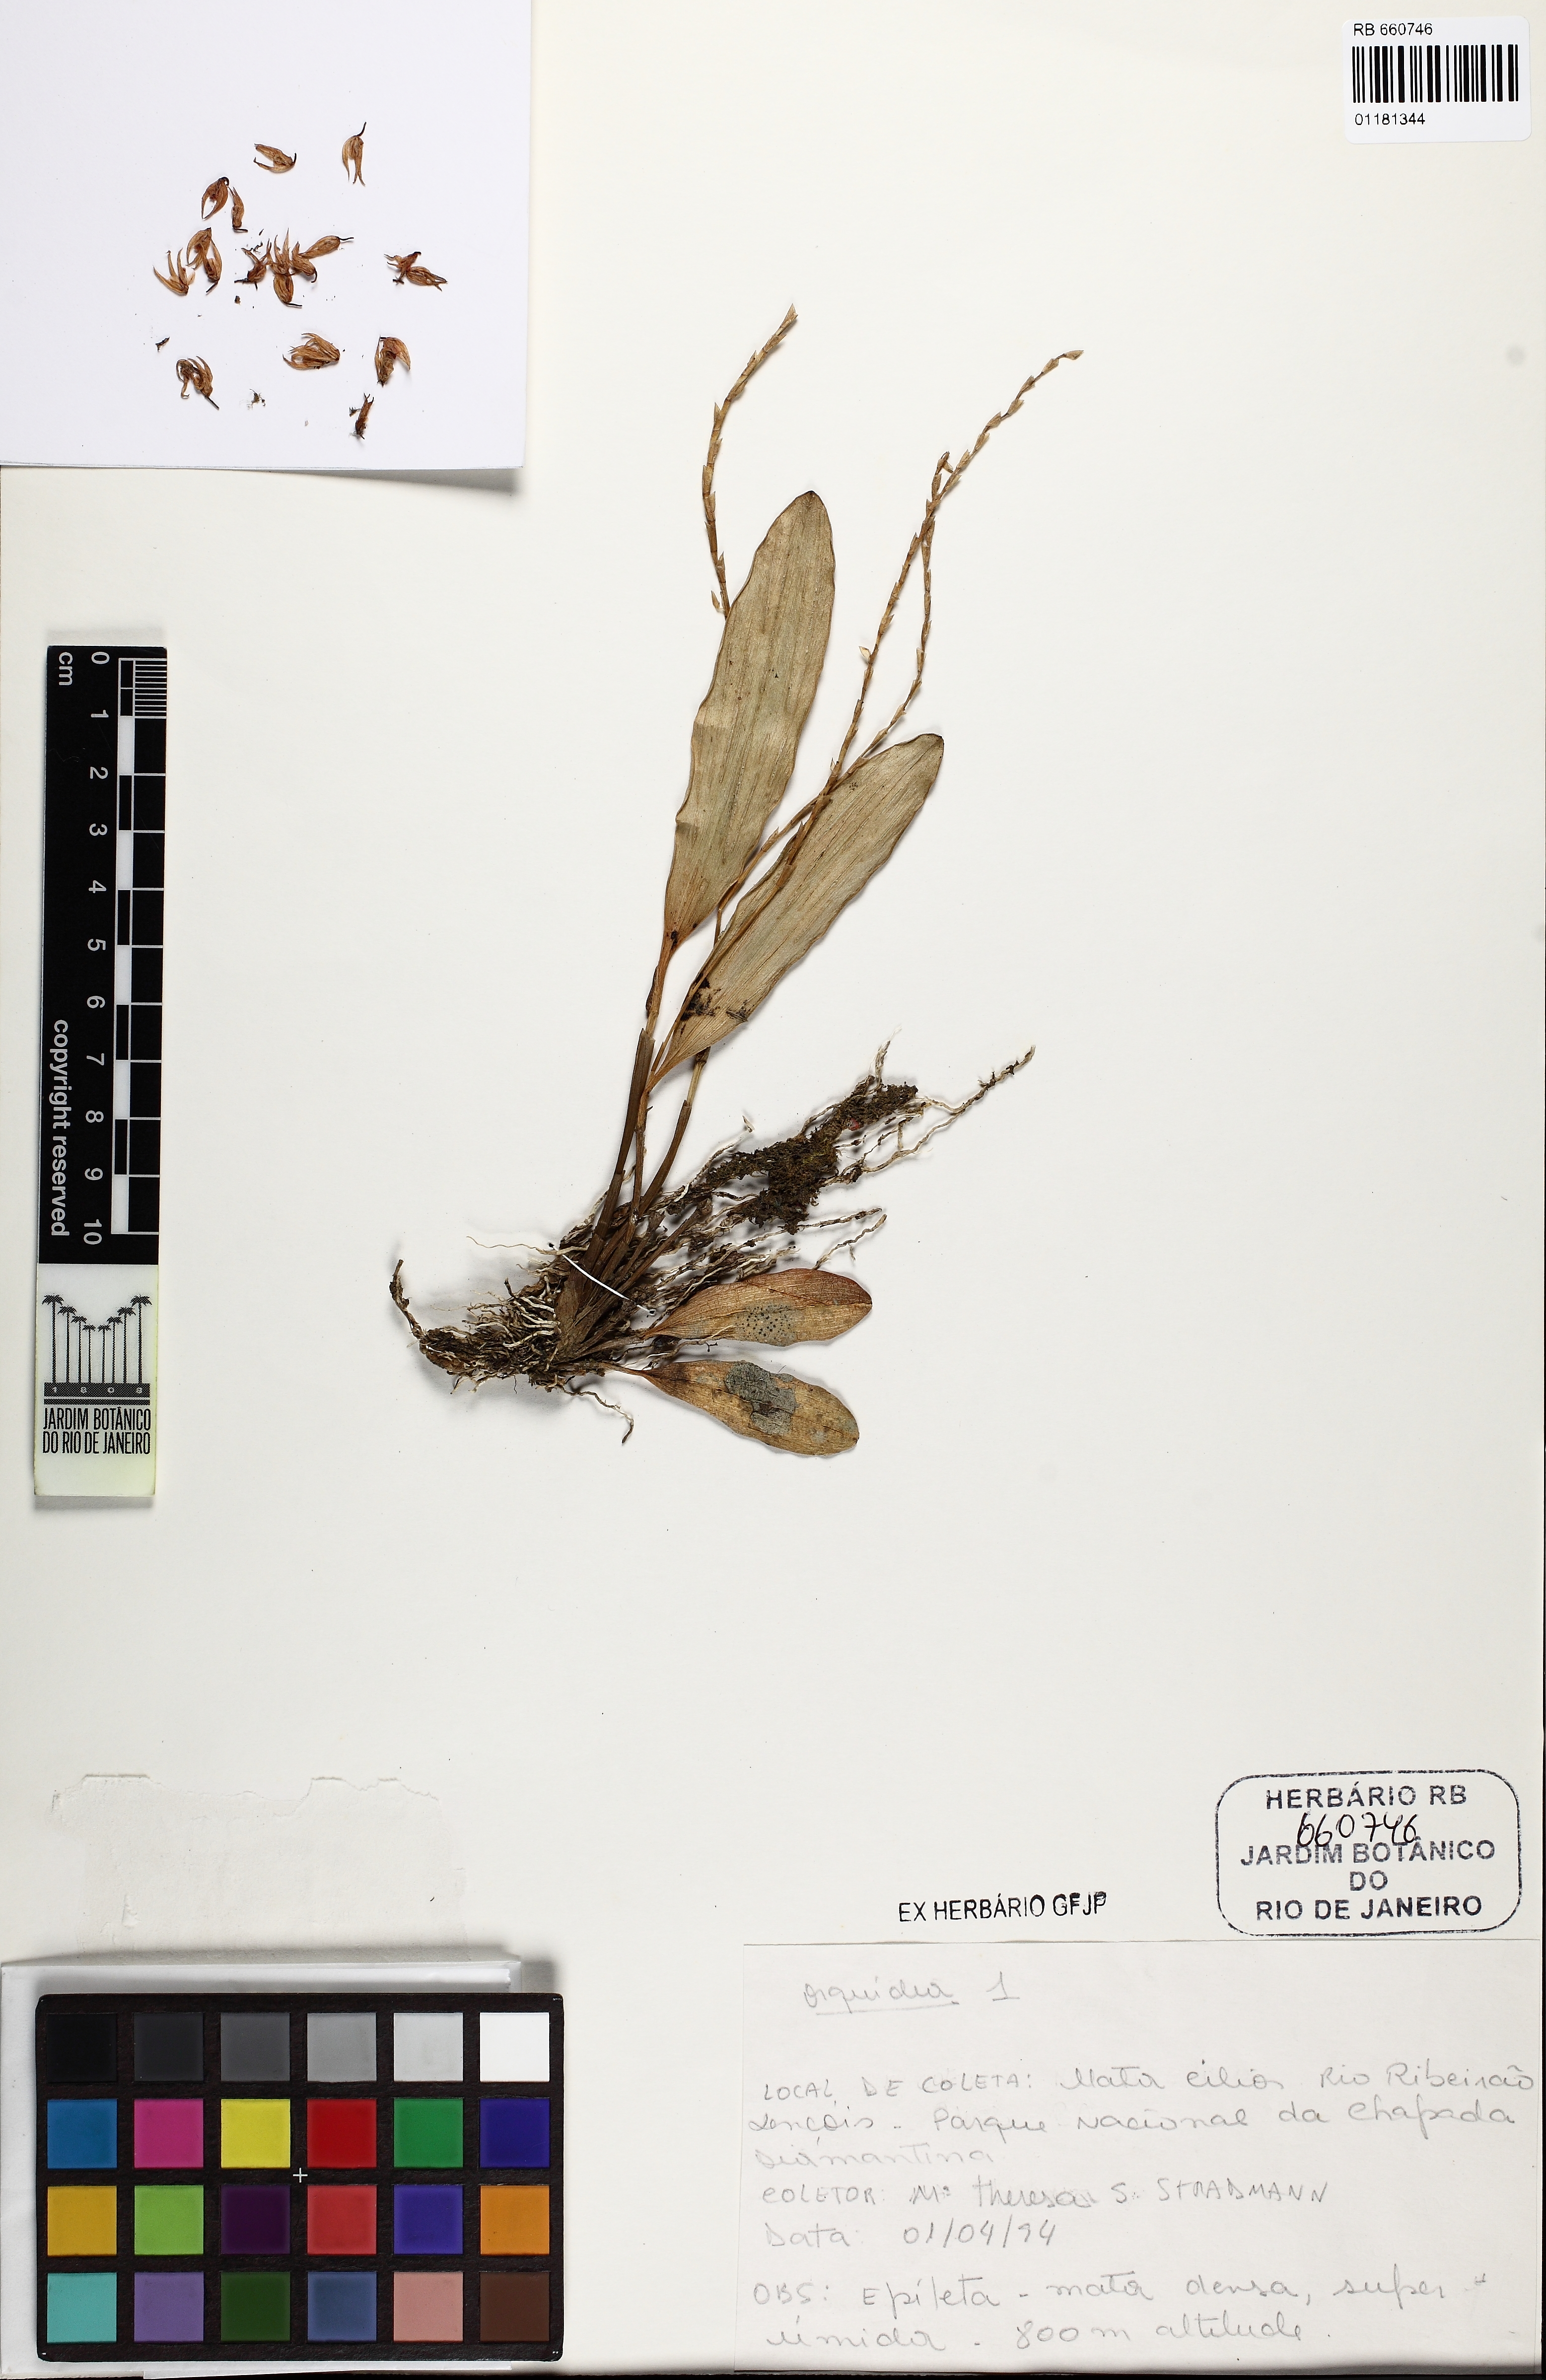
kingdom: Plantae
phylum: Tracheophyta
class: Liliopsida
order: Asparagales
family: Orchidaceae
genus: Stelis
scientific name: Stelis montserratii
